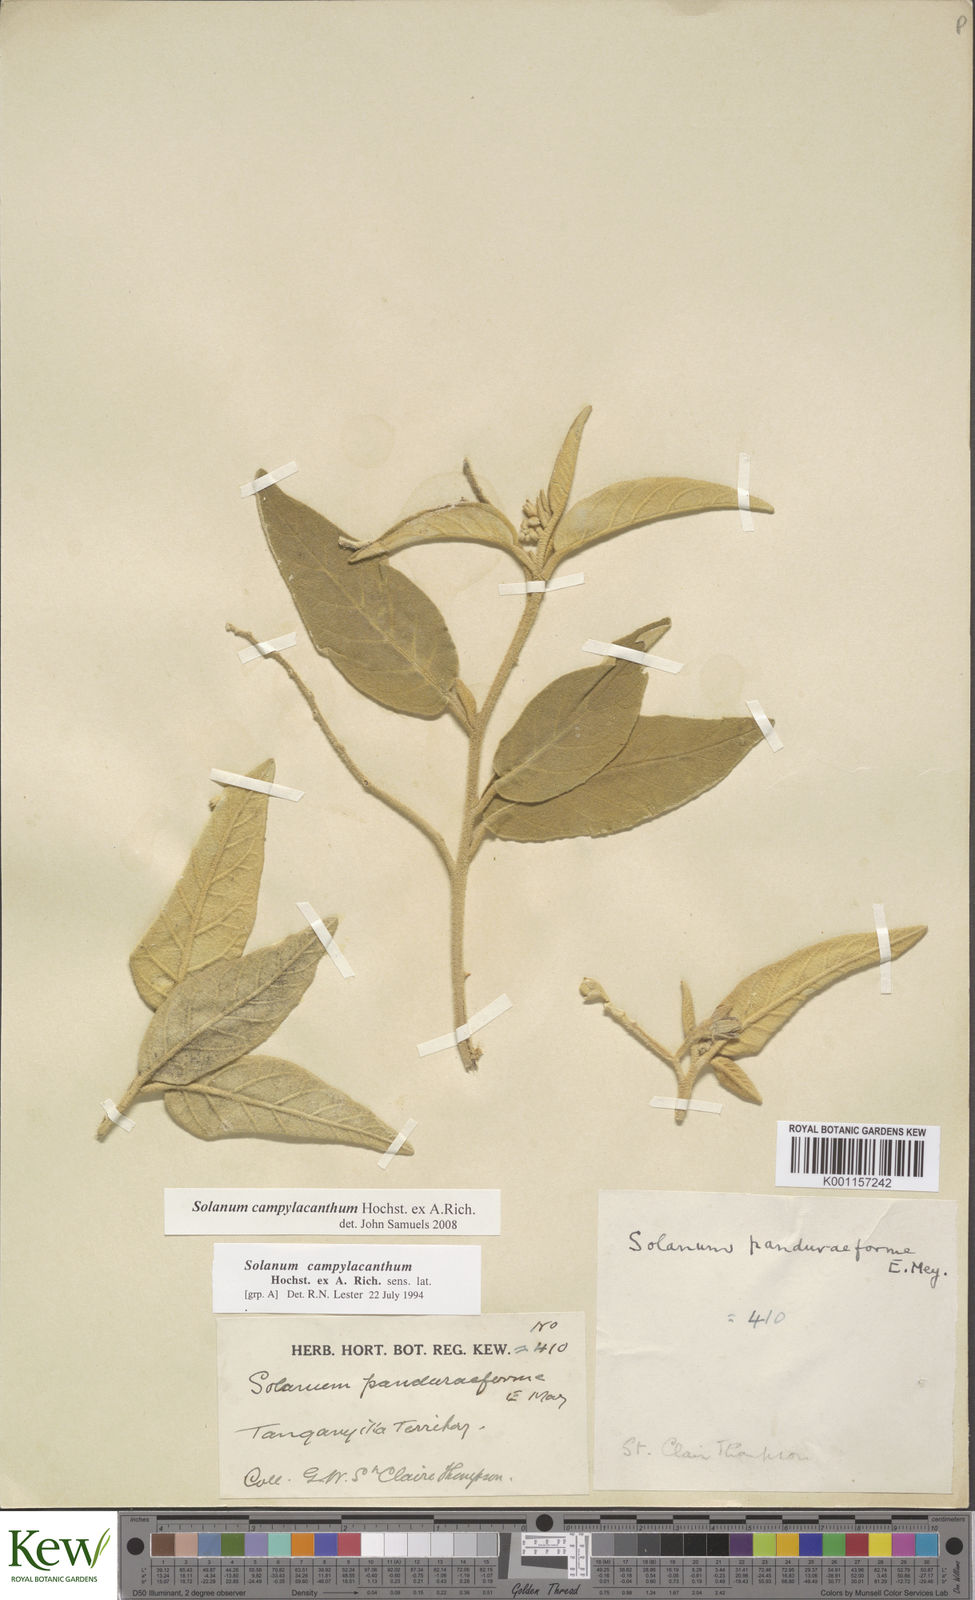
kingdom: Plantae
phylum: Tracheophyta
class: Magnoliopsida
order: Solanales
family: Solanaceae
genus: Solanum
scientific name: Solanum campylacanthum
